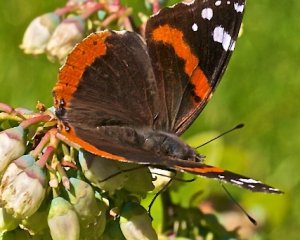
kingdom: Animalia
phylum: Arthropoda
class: Insecta
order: Lepidoptera
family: Nymphalidae
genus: Vanessa
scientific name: Vanessa atalanta
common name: Red Admiral
